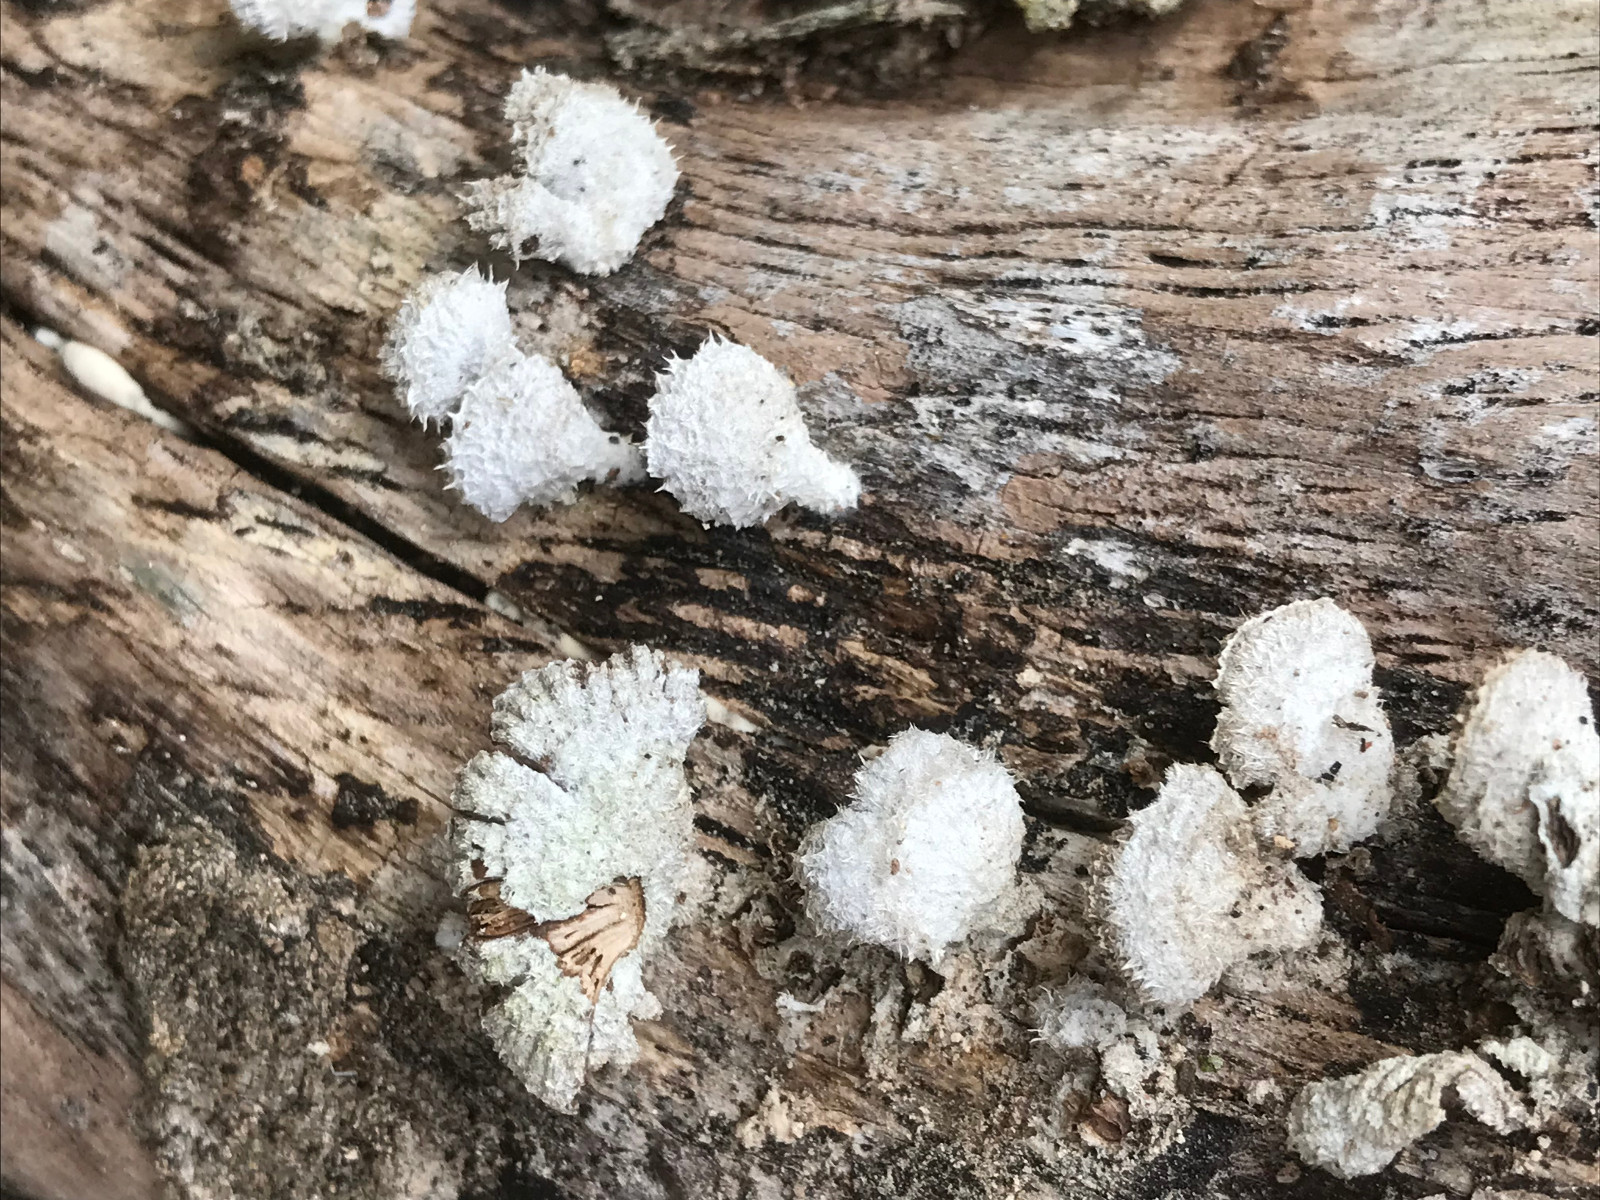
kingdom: Fungi
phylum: Basidiomycota
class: Agaricomycetes
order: Agaricales
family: Schizophyllaceae
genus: Schizophyllum
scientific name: Schizophyllum commune
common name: kløvblad
